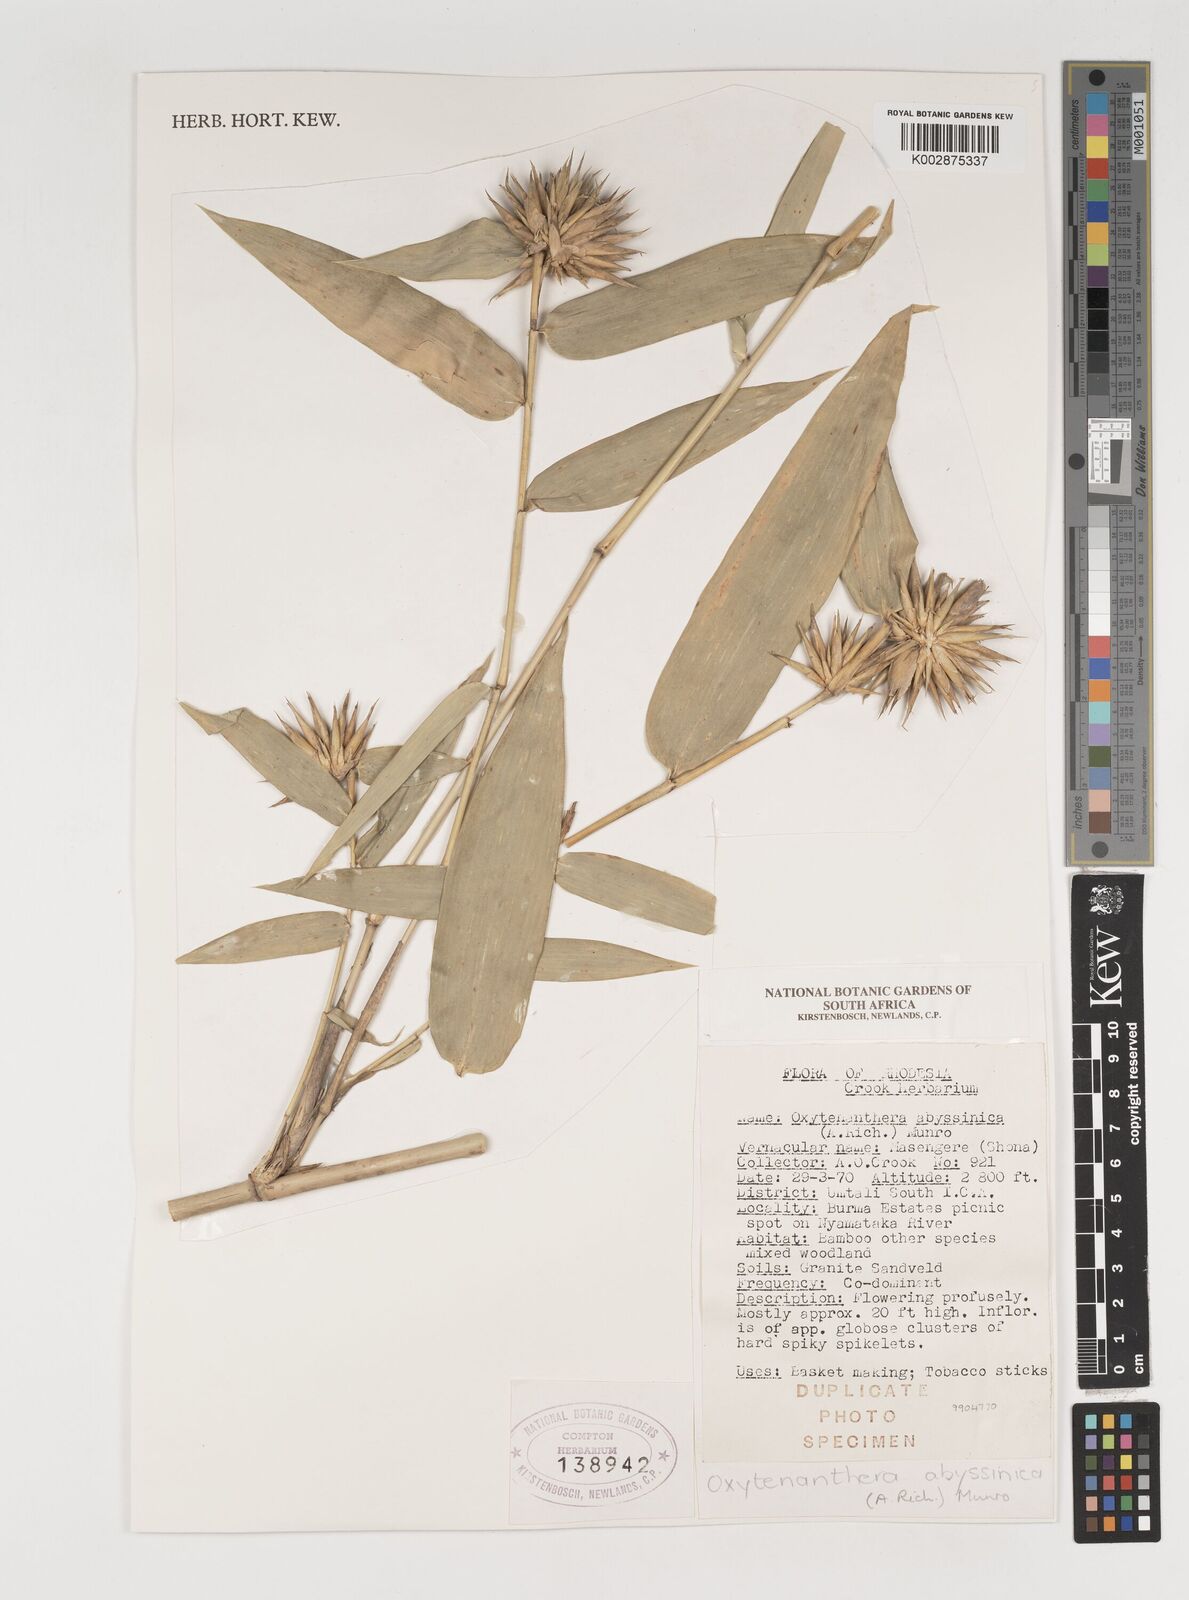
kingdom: Plantae
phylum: Tracheophyta
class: Liliopsida
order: Poales
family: Poaceae
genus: Oxytenanthera
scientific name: Oxytenanthera abyssinica
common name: Wine bamboo
